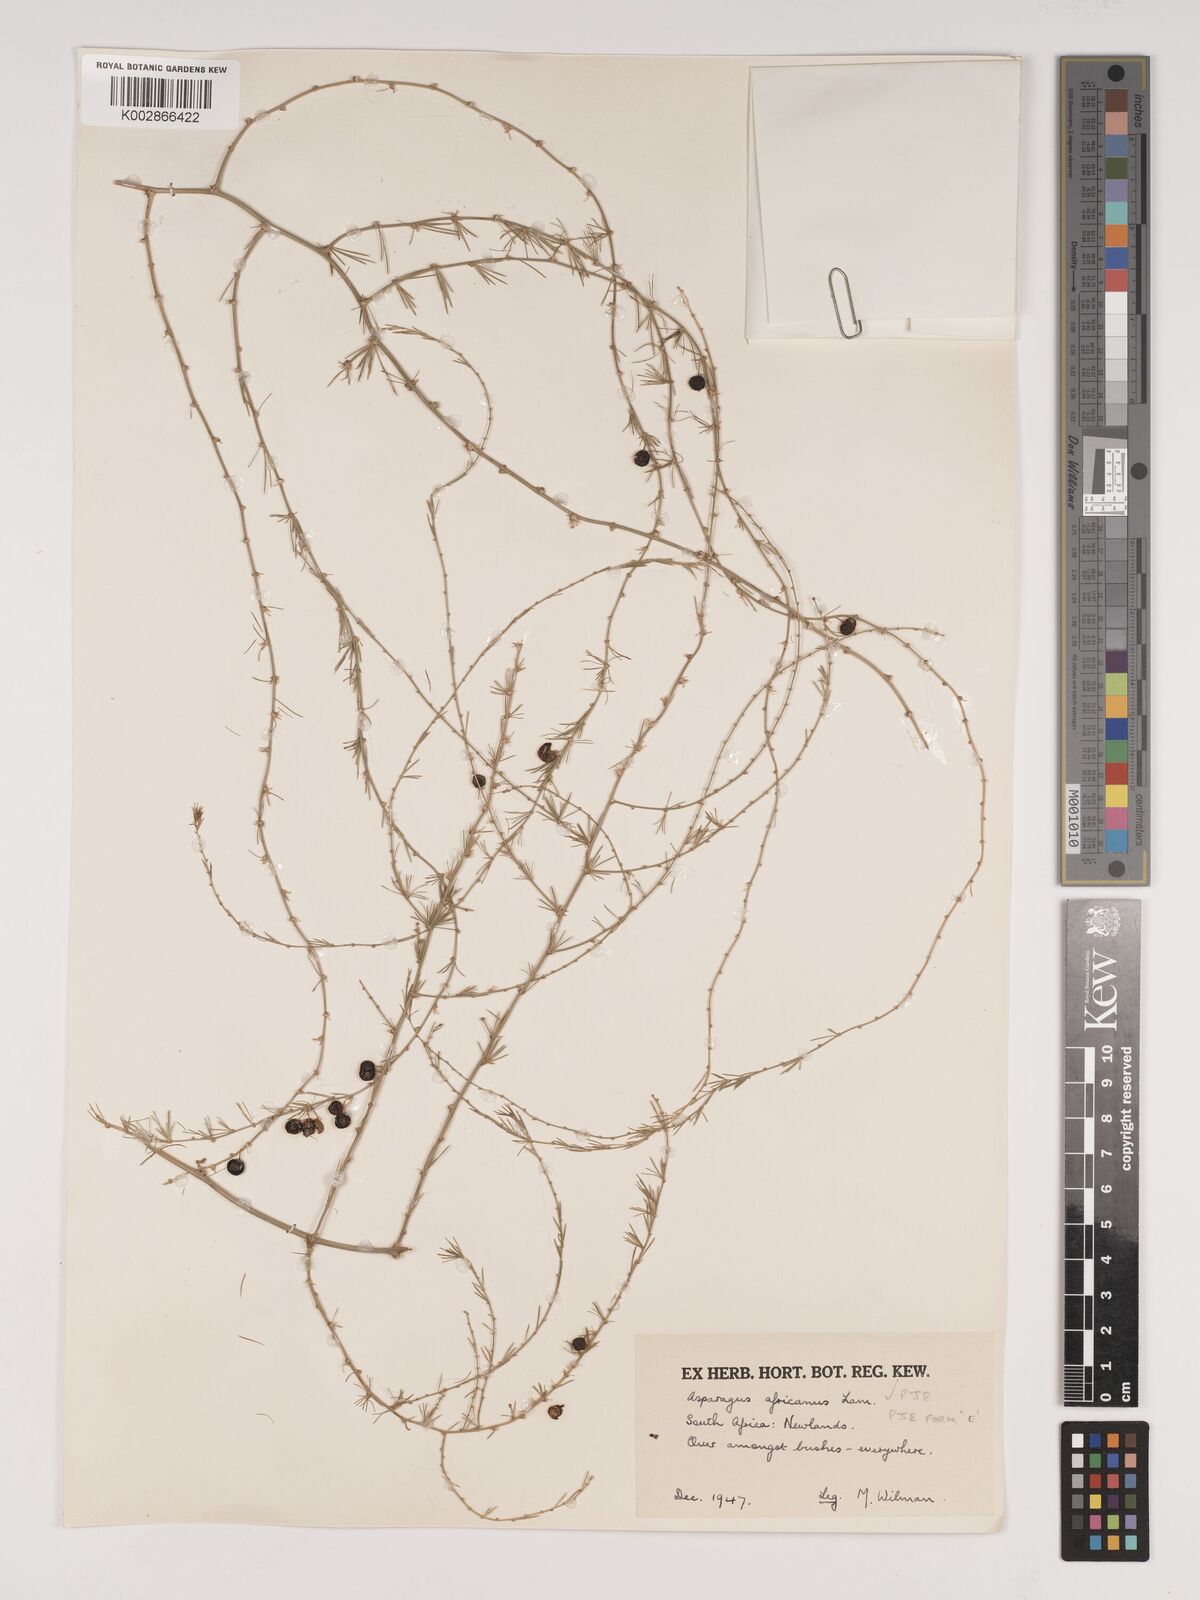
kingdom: Plantae
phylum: Tracheophyta
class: Liliopsida
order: Asparagales
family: Asparagaceae
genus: Asparagus
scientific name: Asparagus africanus
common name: Asparagus-fern
